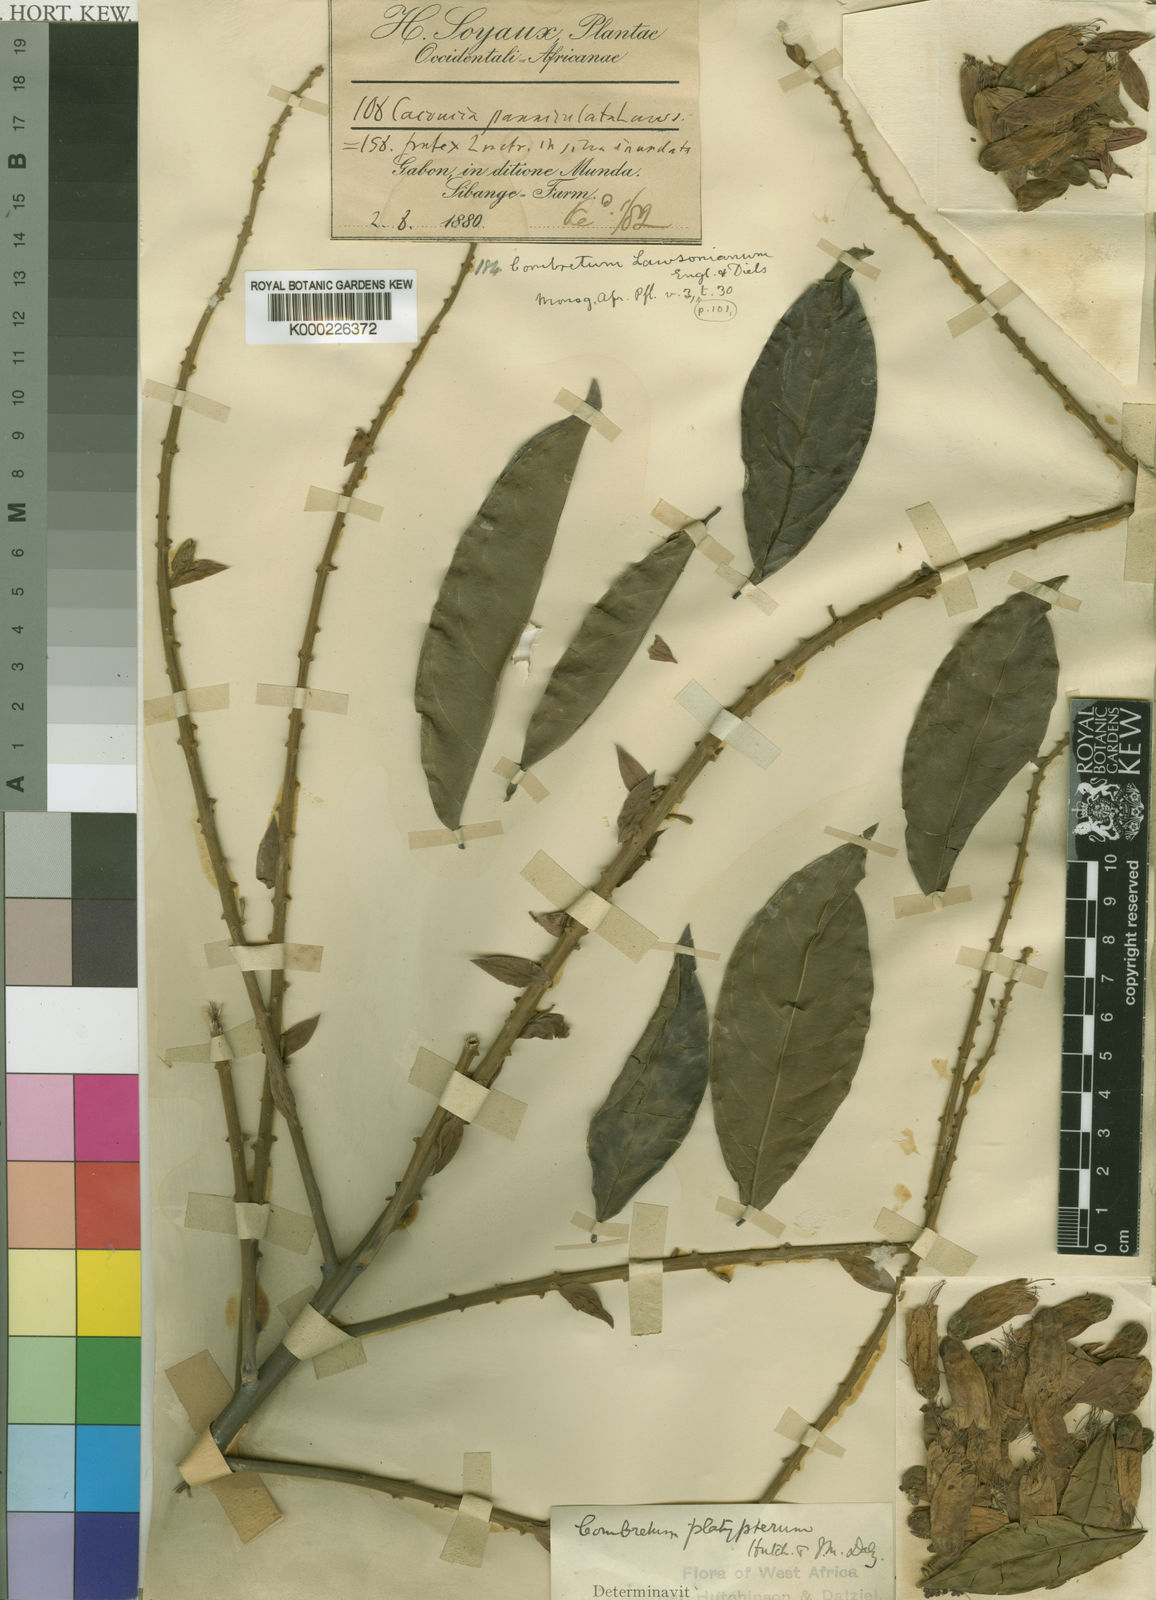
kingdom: Plantae
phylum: Tracheophyta
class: Magnoliopsida
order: Myrtales
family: Combretaceae
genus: Combretum
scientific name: Combretum platypterum
